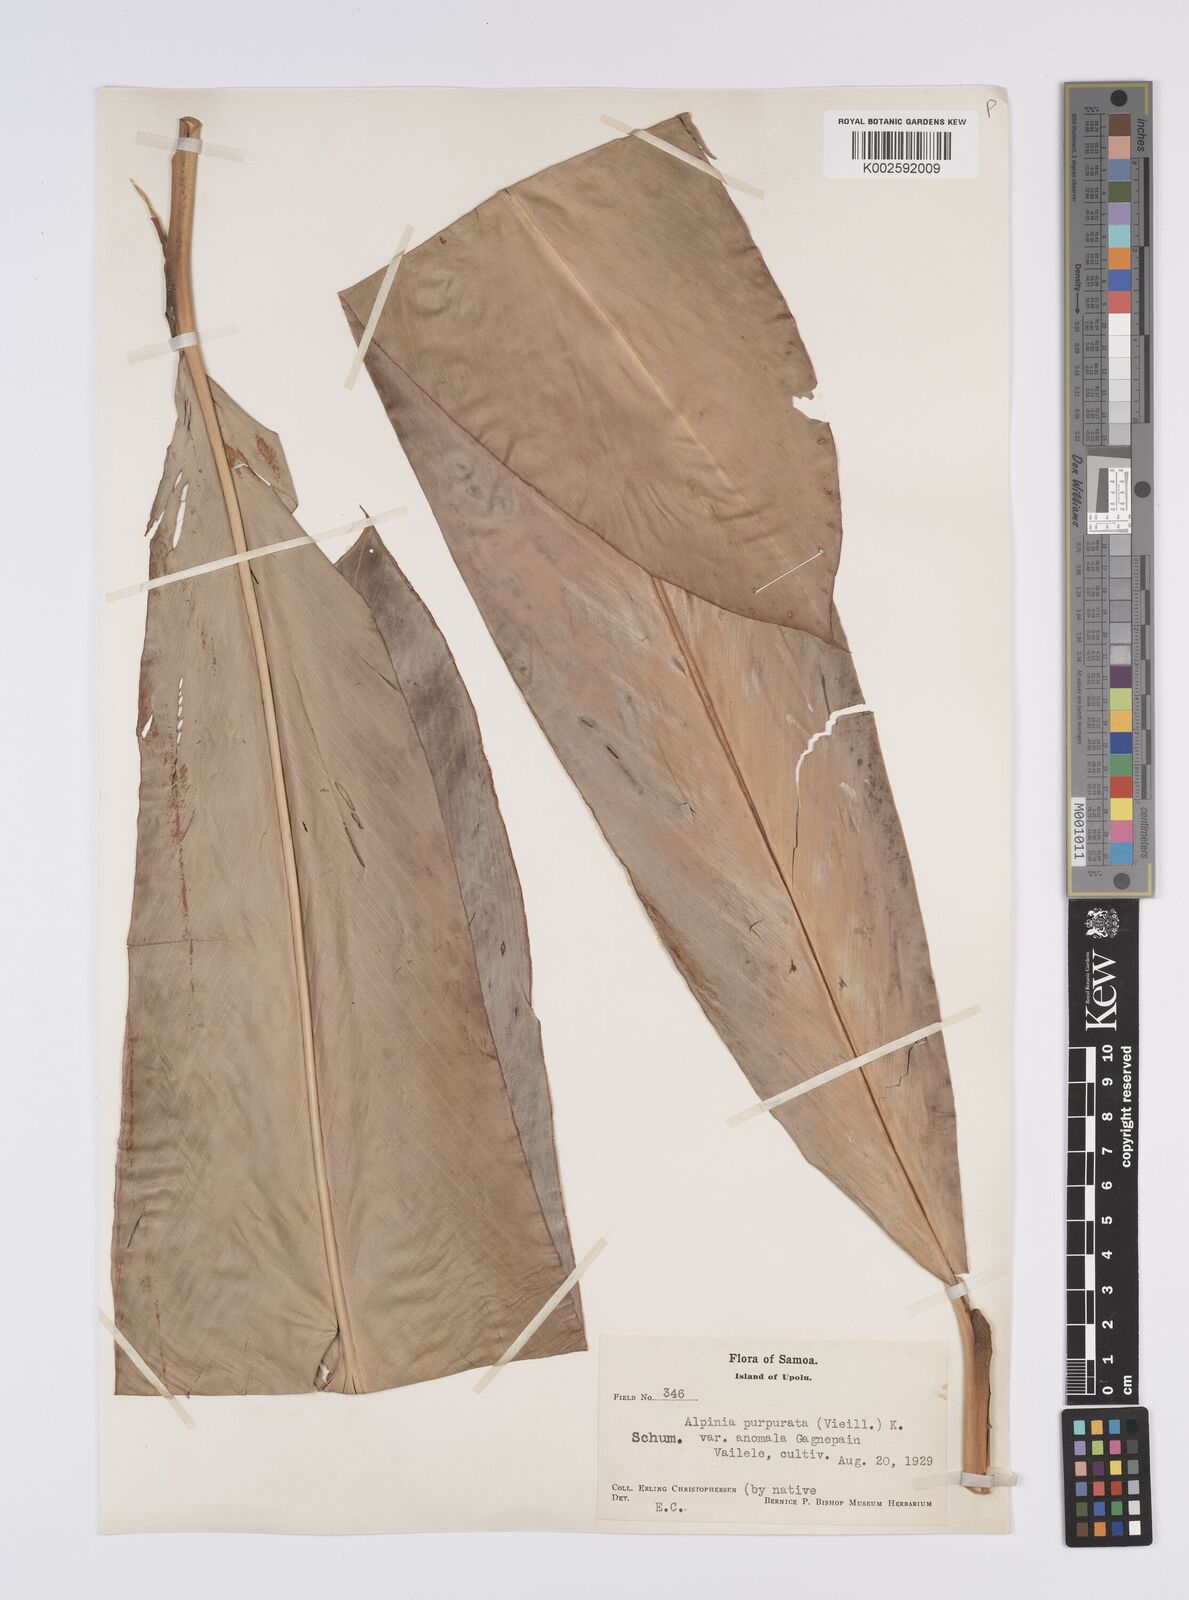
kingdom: Plantae
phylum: Tracheophyta
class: Liliopsida
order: Zingiberales
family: Zingiberaceae
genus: Alpinia
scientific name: Alpinia purpurata
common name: Red ginger
